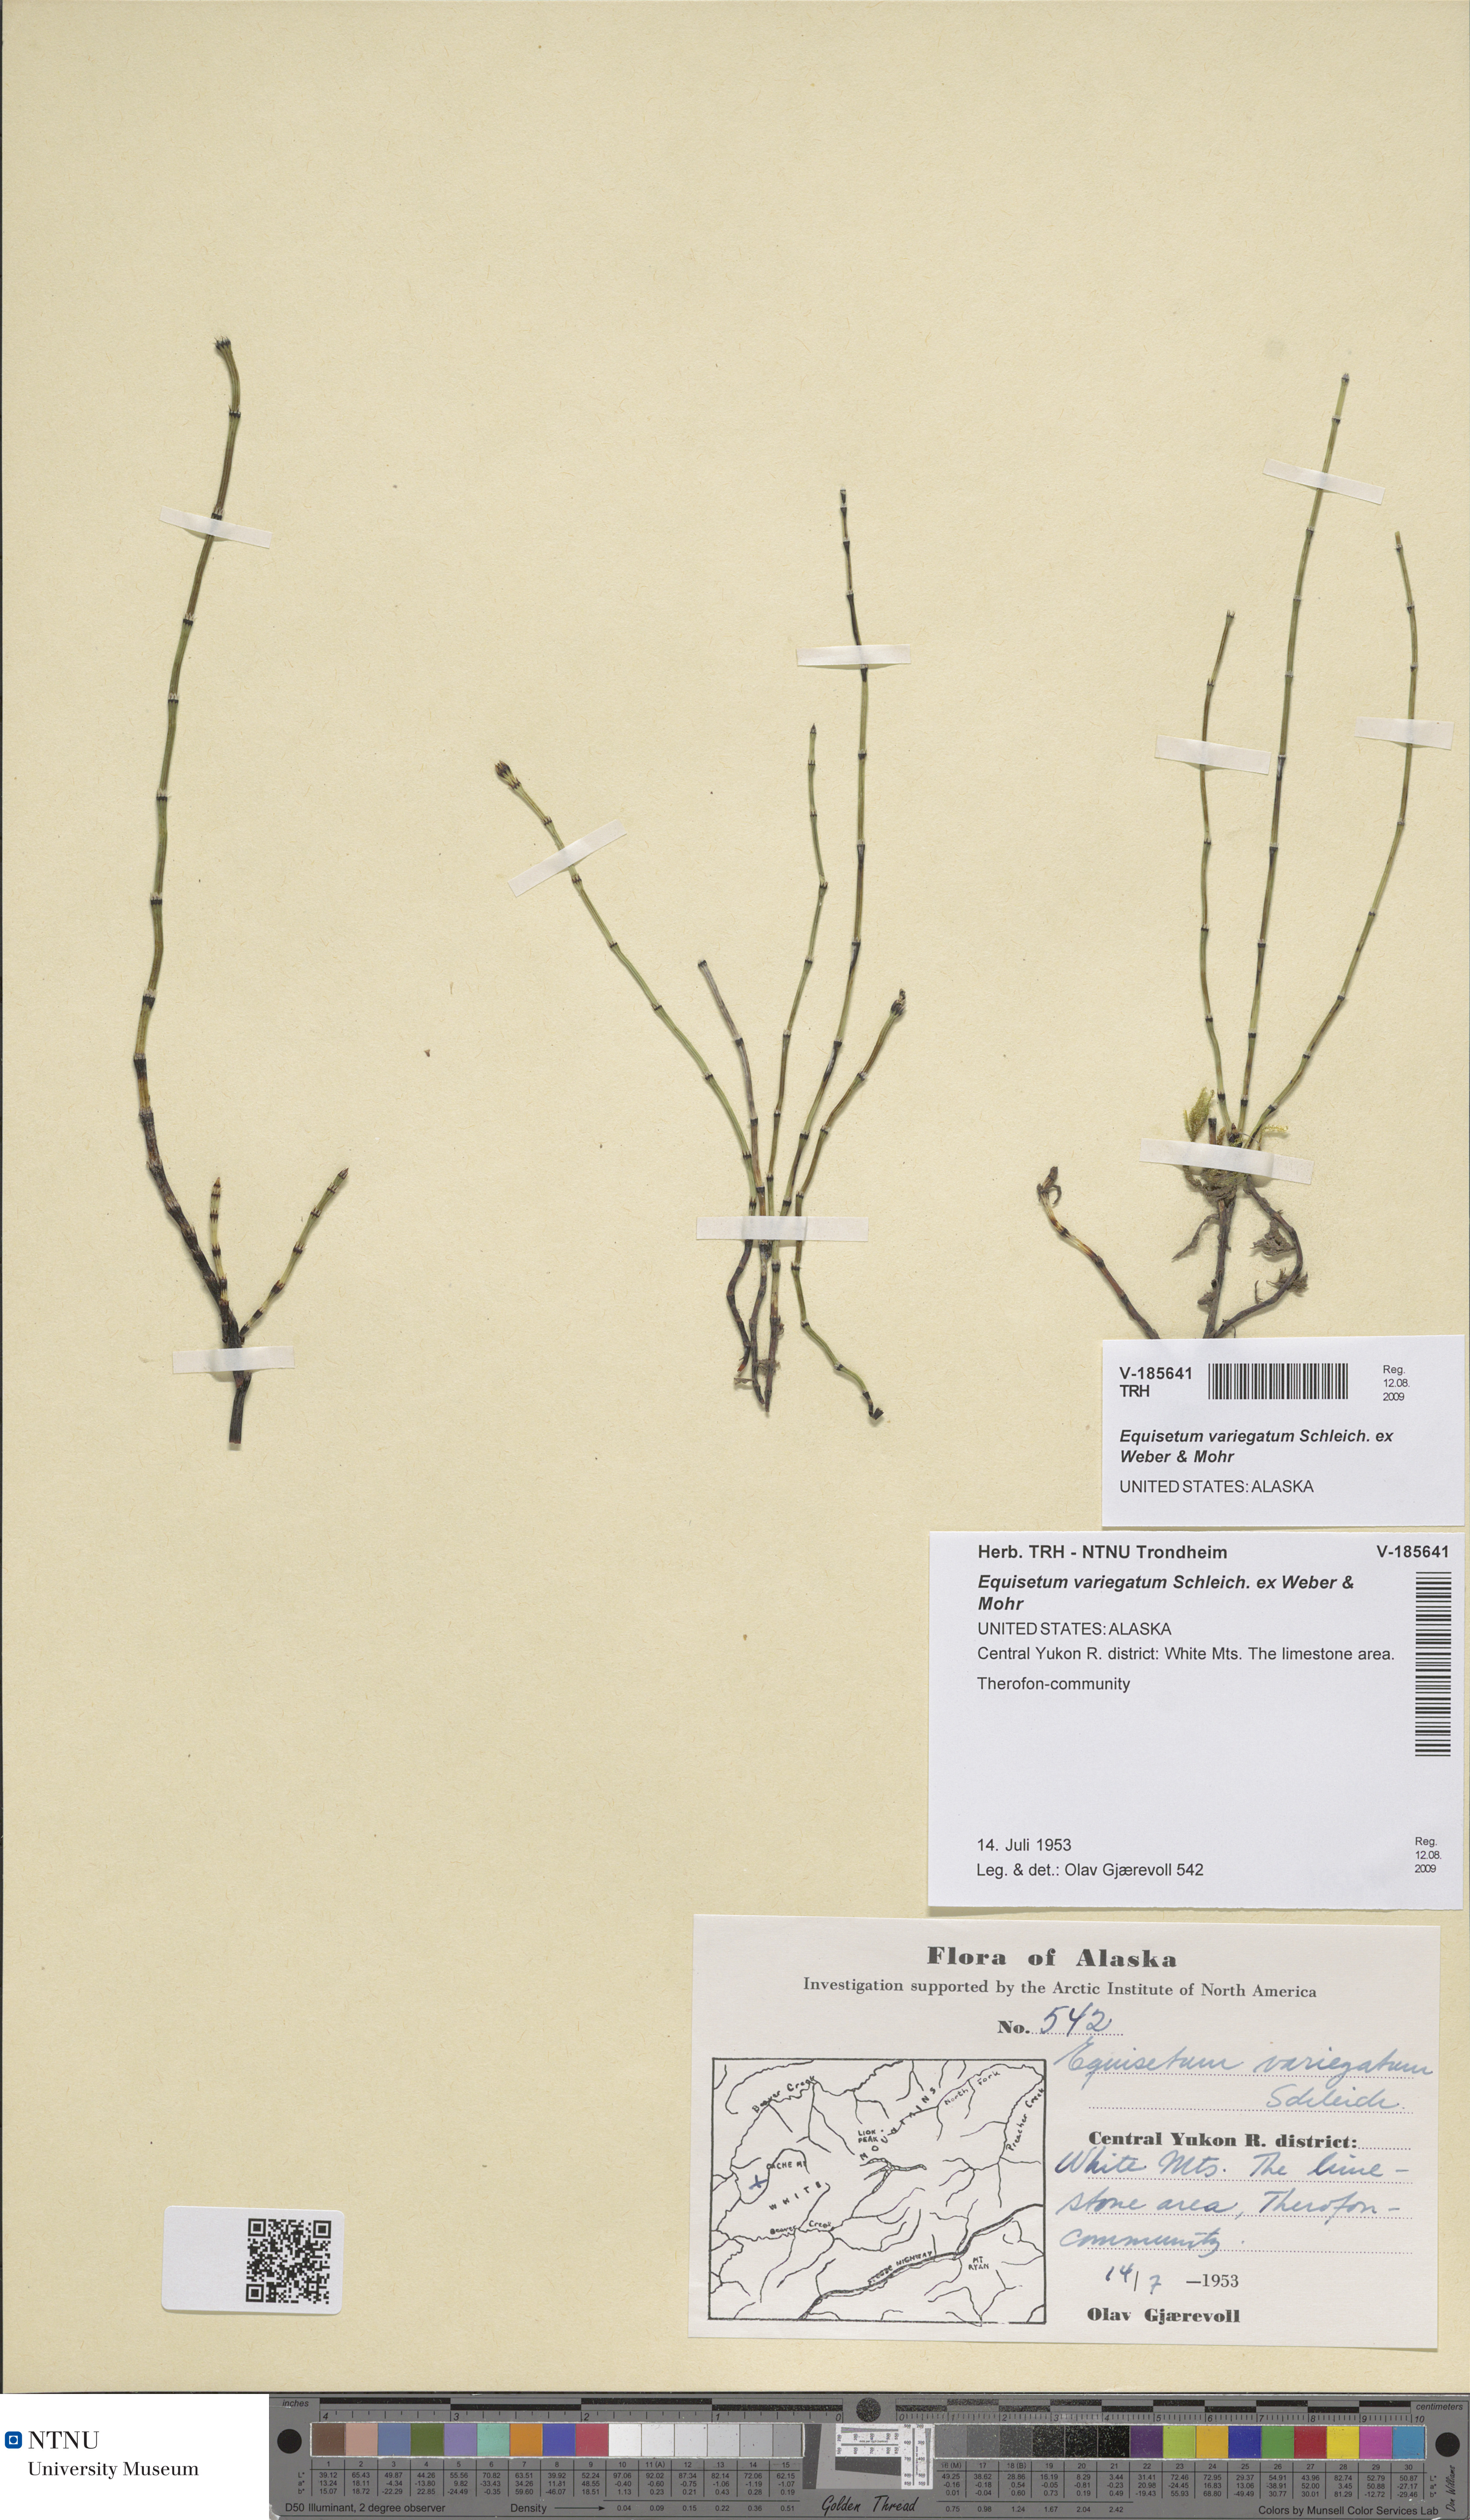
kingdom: Plantae
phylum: Tracheophyta
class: Polypodiopsida
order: Equisetales
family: Equisetaceae
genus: Equisetum
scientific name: Equisetum variegatum
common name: Variegated horsetail
